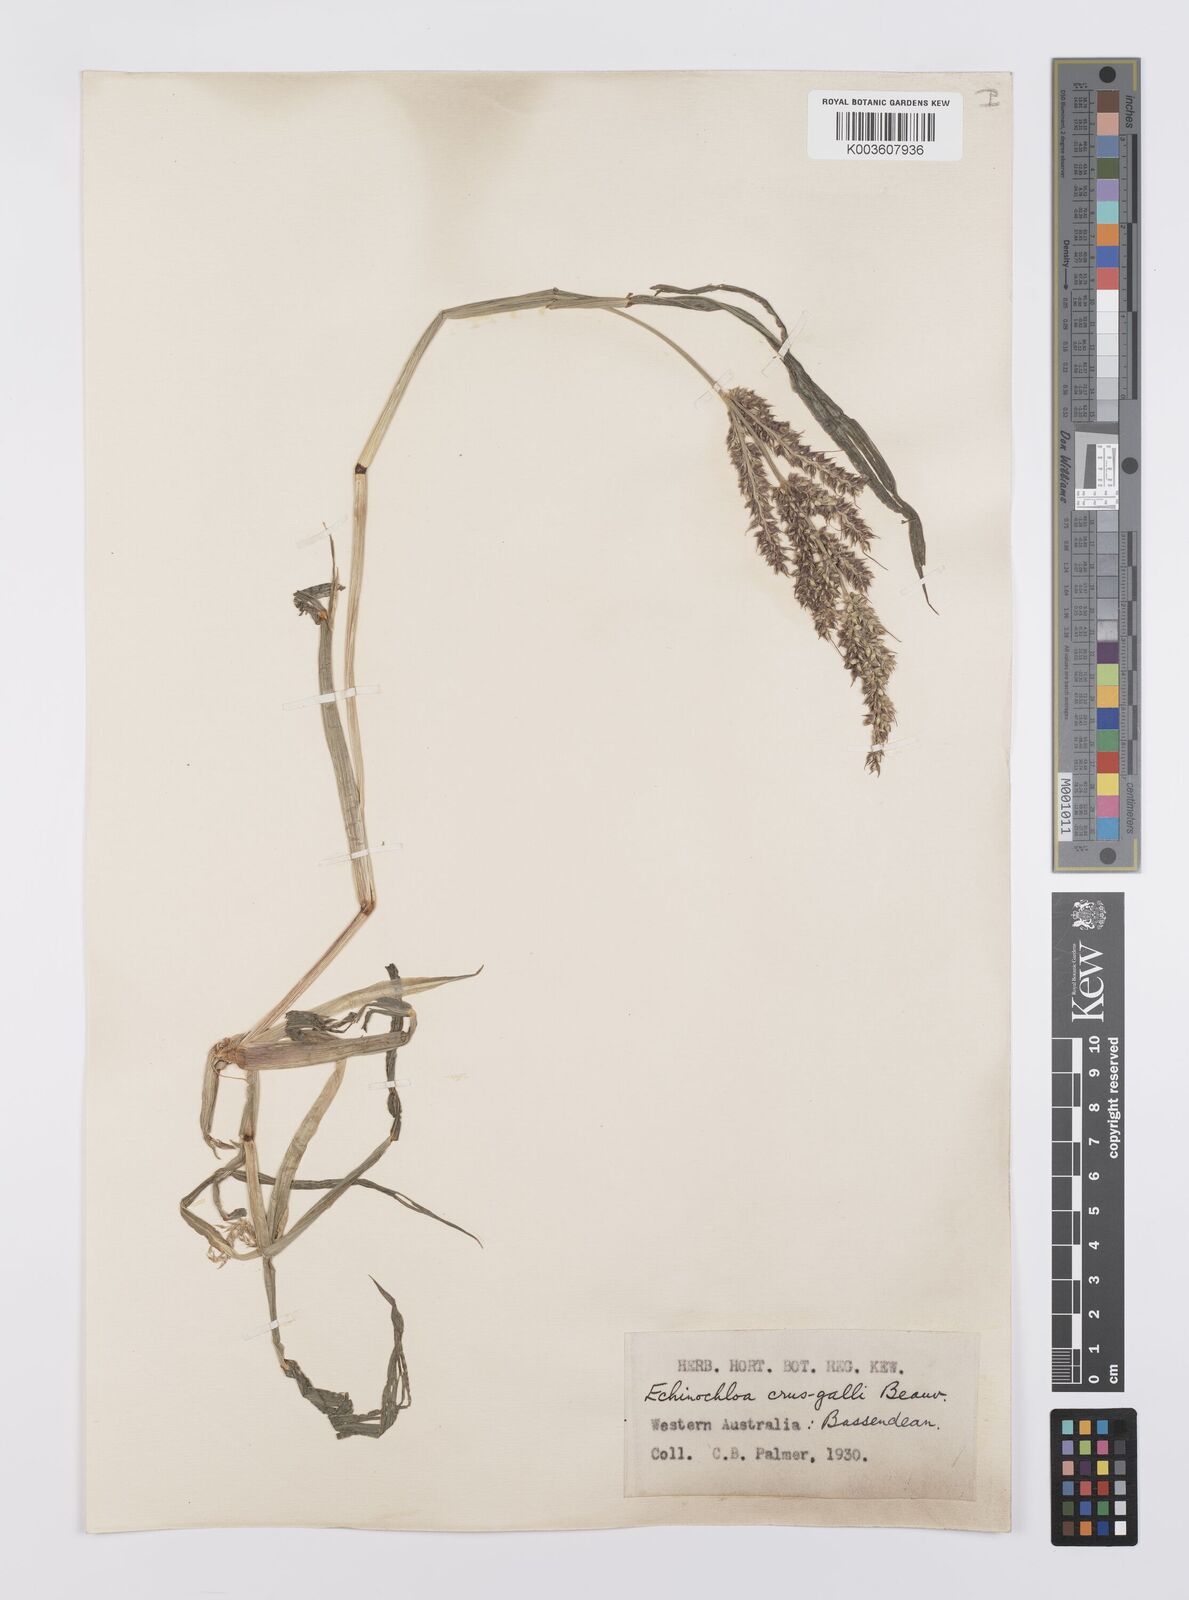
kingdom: Plantae
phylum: Tracheophyta
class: Liliopsida
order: Poales
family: Poaceae
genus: Echinochloa
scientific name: Echinochloa crus-galli
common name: Cockspur
